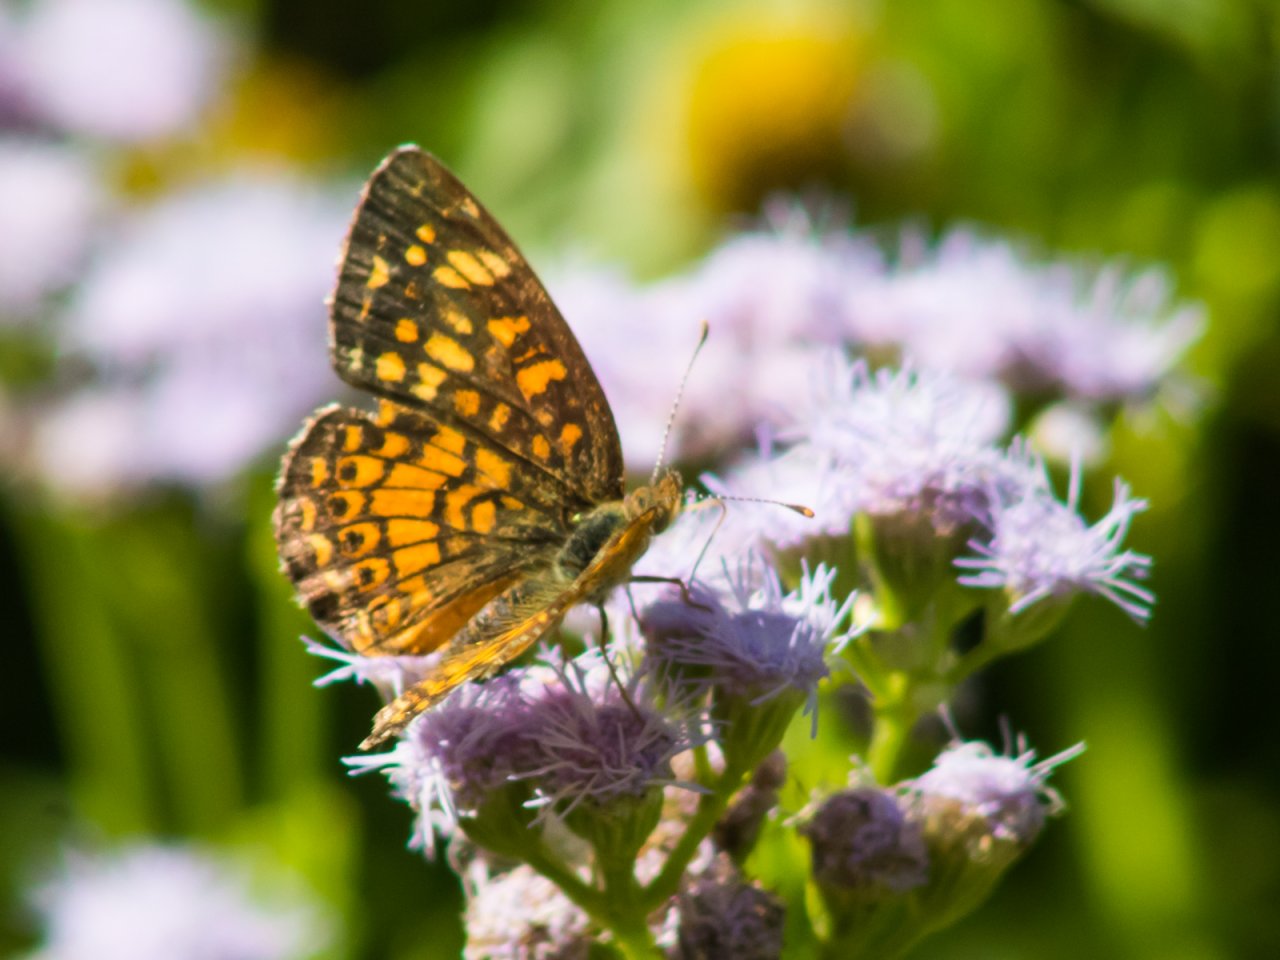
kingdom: Animalia
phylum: Arthropoda
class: Insecta
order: Lepidoptera
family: Nymphalidae
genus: Phyciodes
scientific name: Phyciodes vesta
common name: Vesta Crescent
